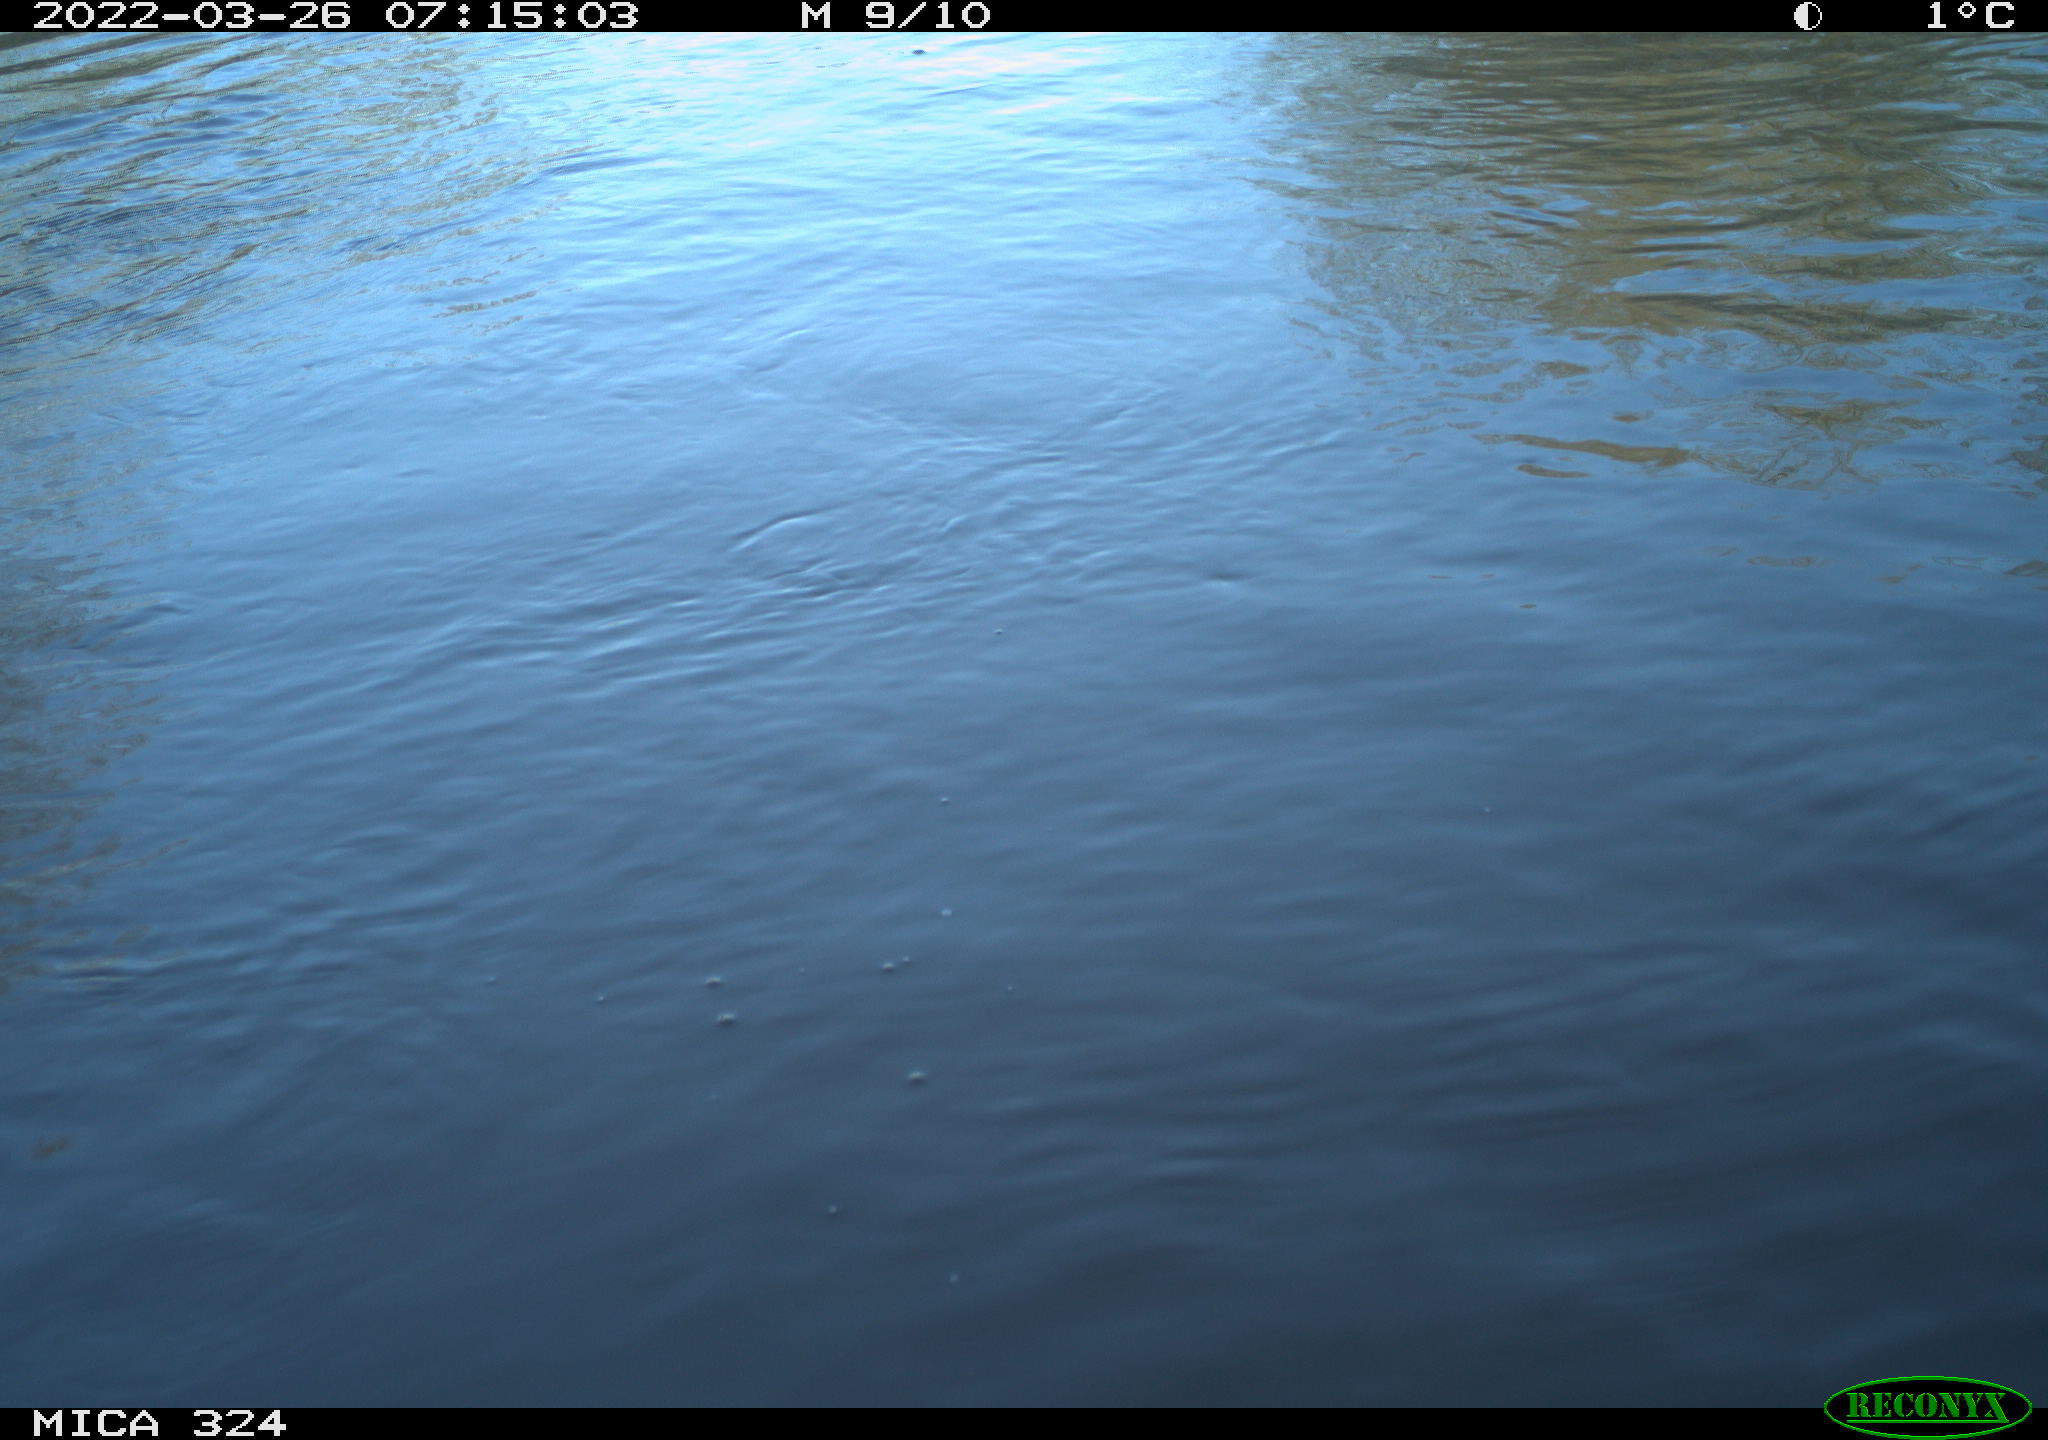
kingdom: Animalia
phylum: Chordata
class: Aves
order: Suliformes
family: Phalacrocoracidae
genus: Phalacrocorax
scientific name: Phalacrocorax carbo
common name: Great cormorant
